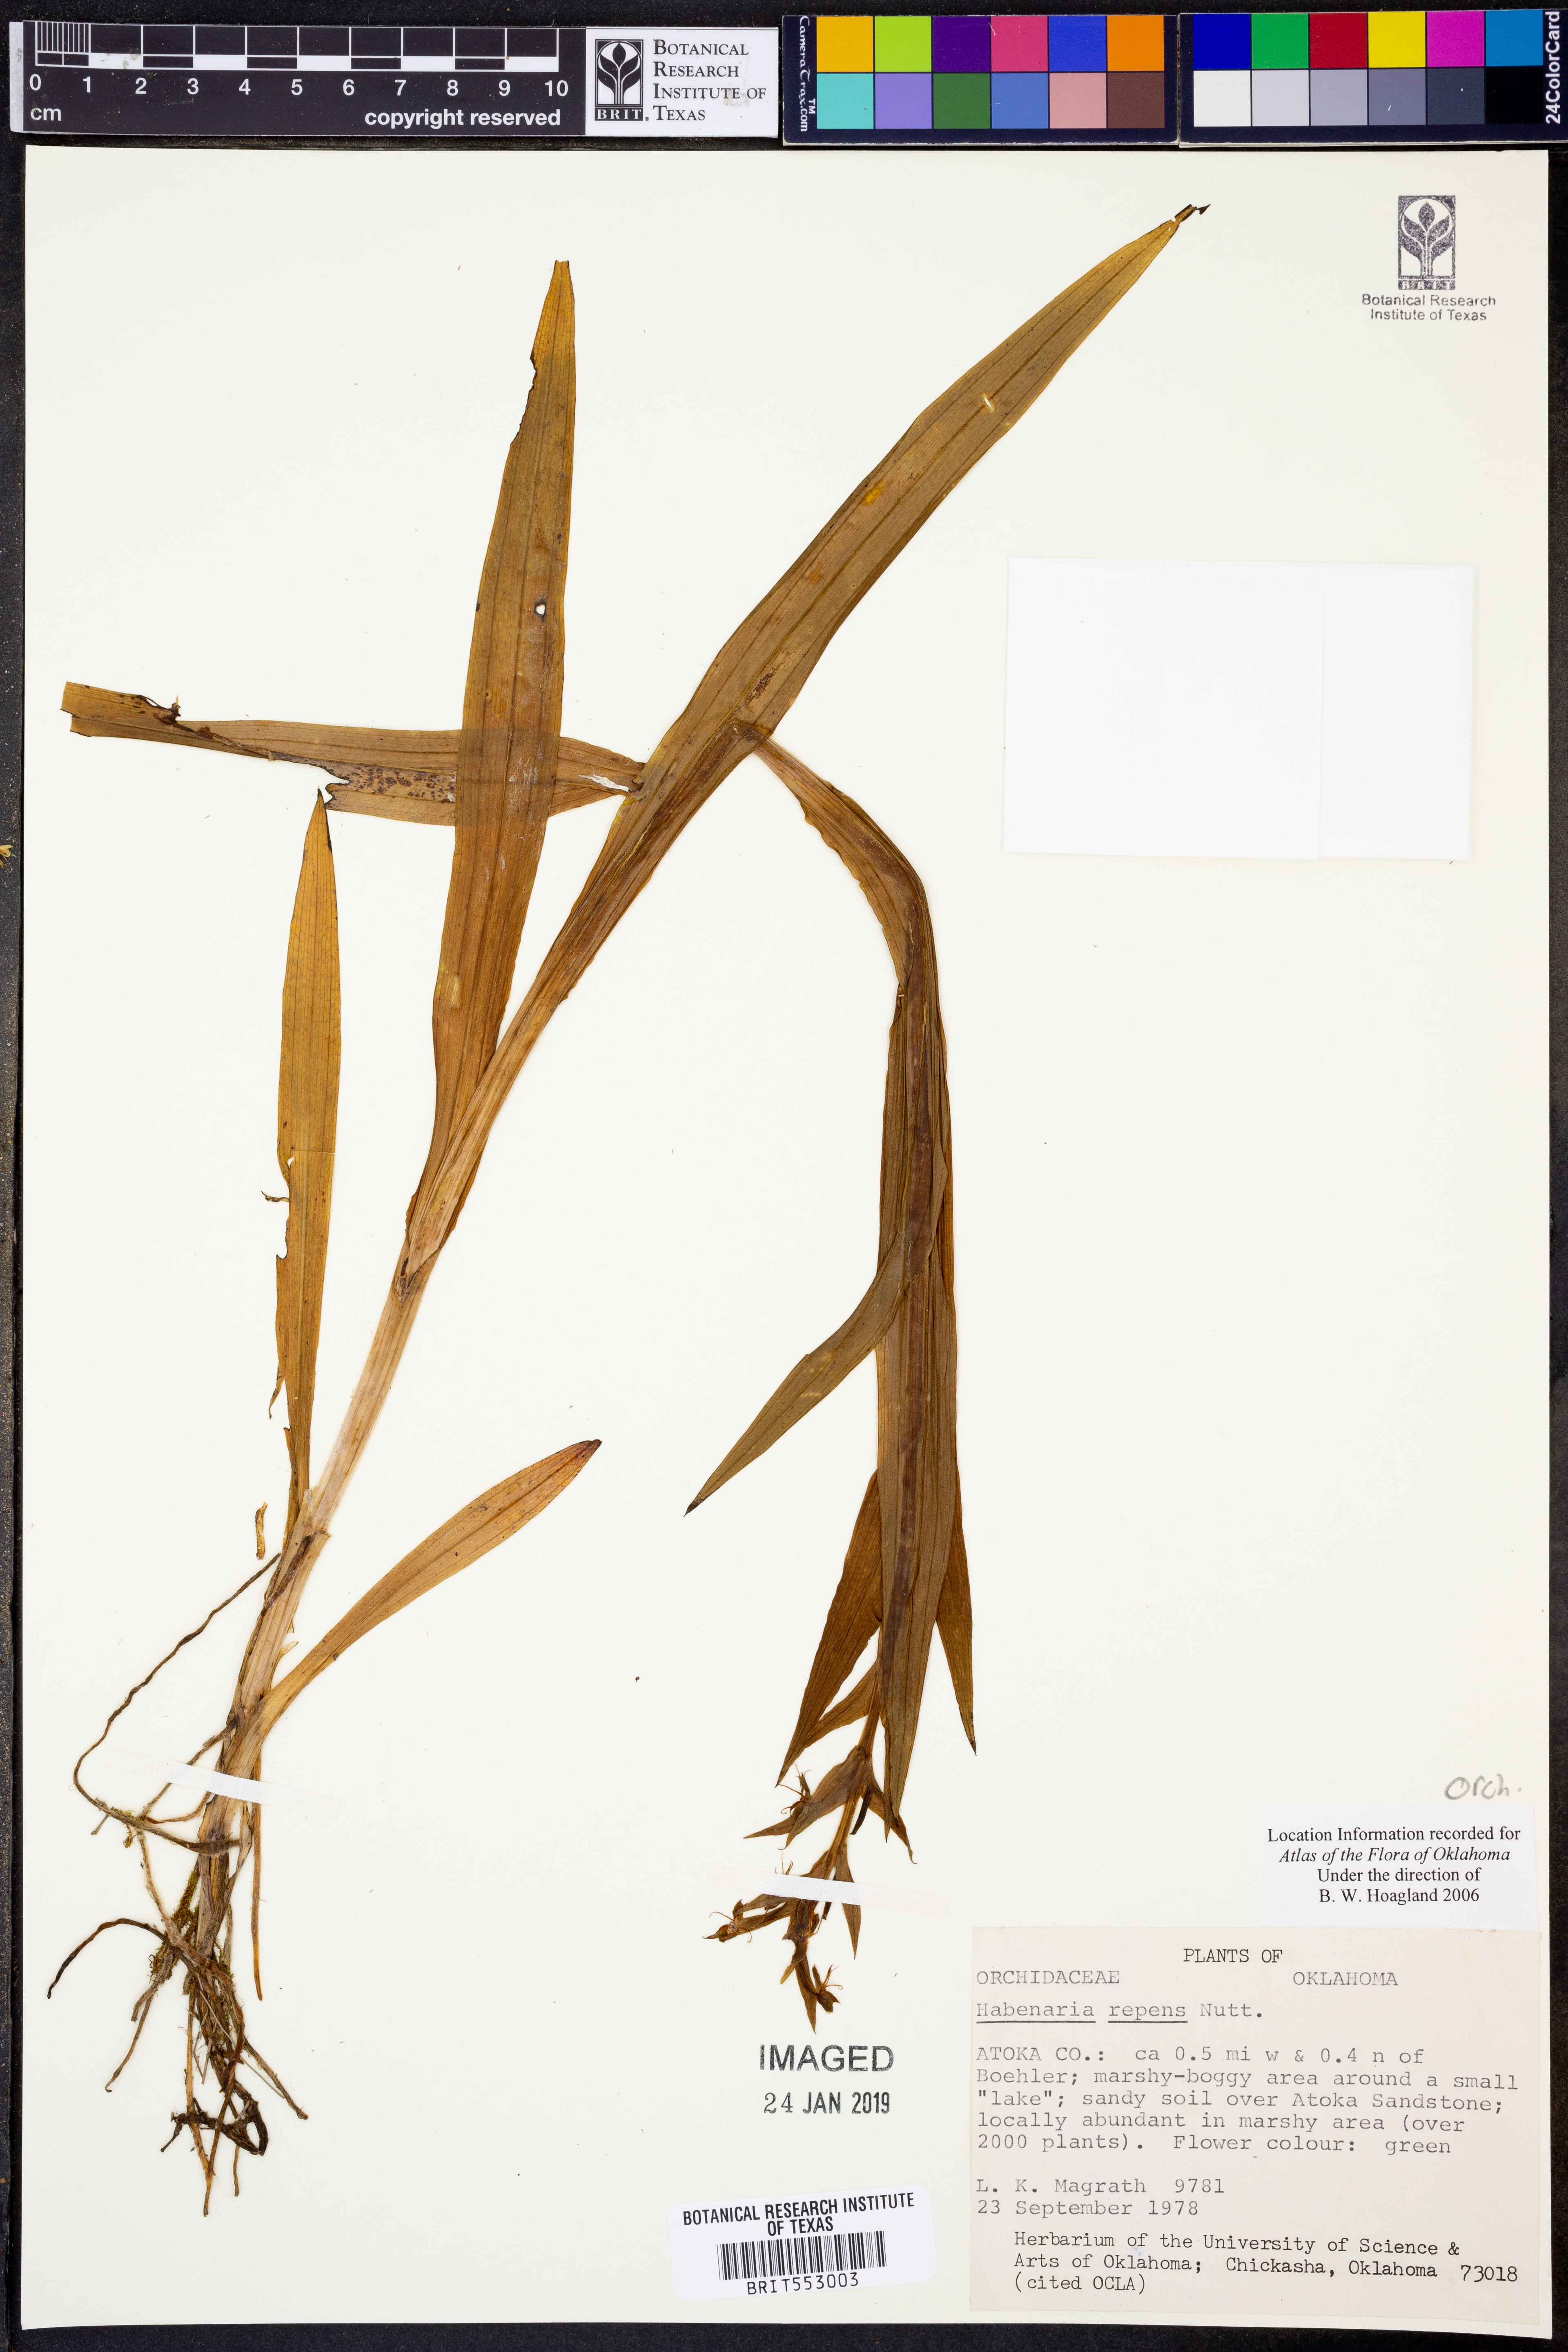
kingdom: Plantae
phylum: Tracheophyta
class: Liliopsida
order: Asparagales
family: Orchidaceae
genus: Habenaria
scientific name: Habenaria repens
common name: Water orchid
